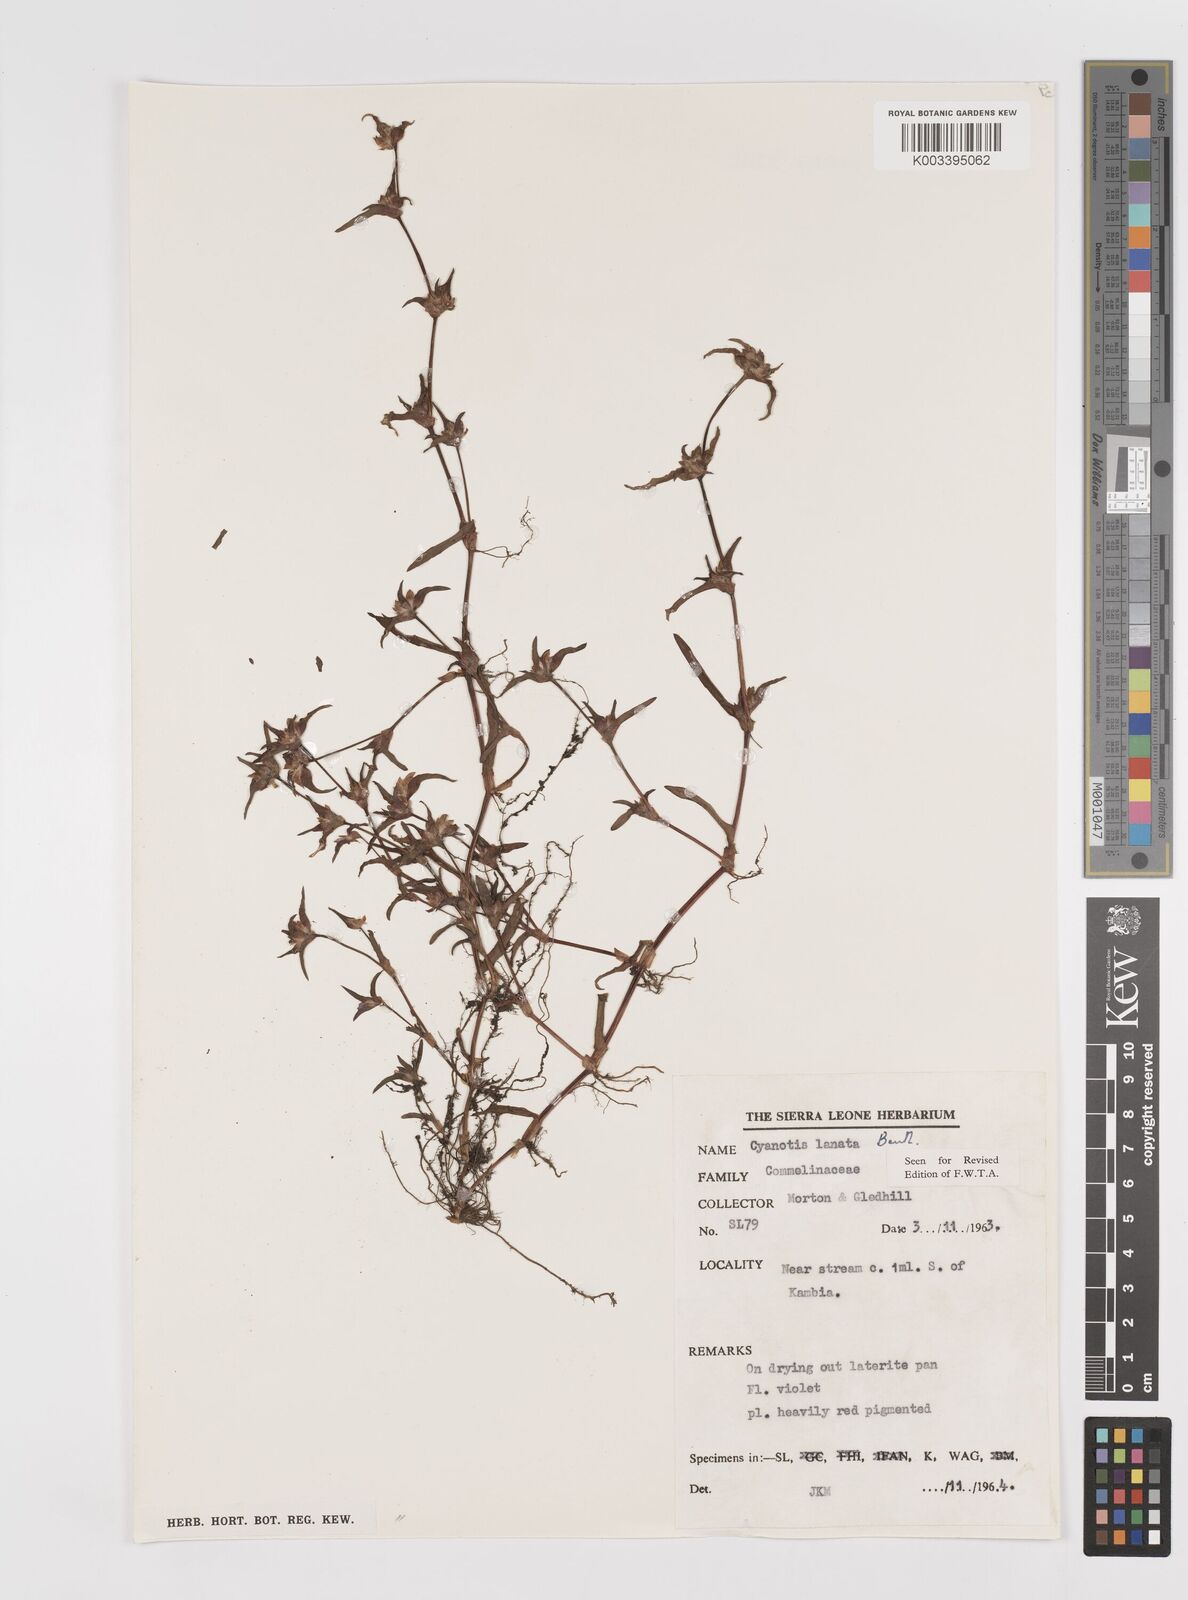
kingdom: Plantae
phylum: Tracheophyta
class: Liliopsida
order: Commelinales
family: Commelinaceae
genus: Cyanotis
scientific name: Cyanotis lanata
